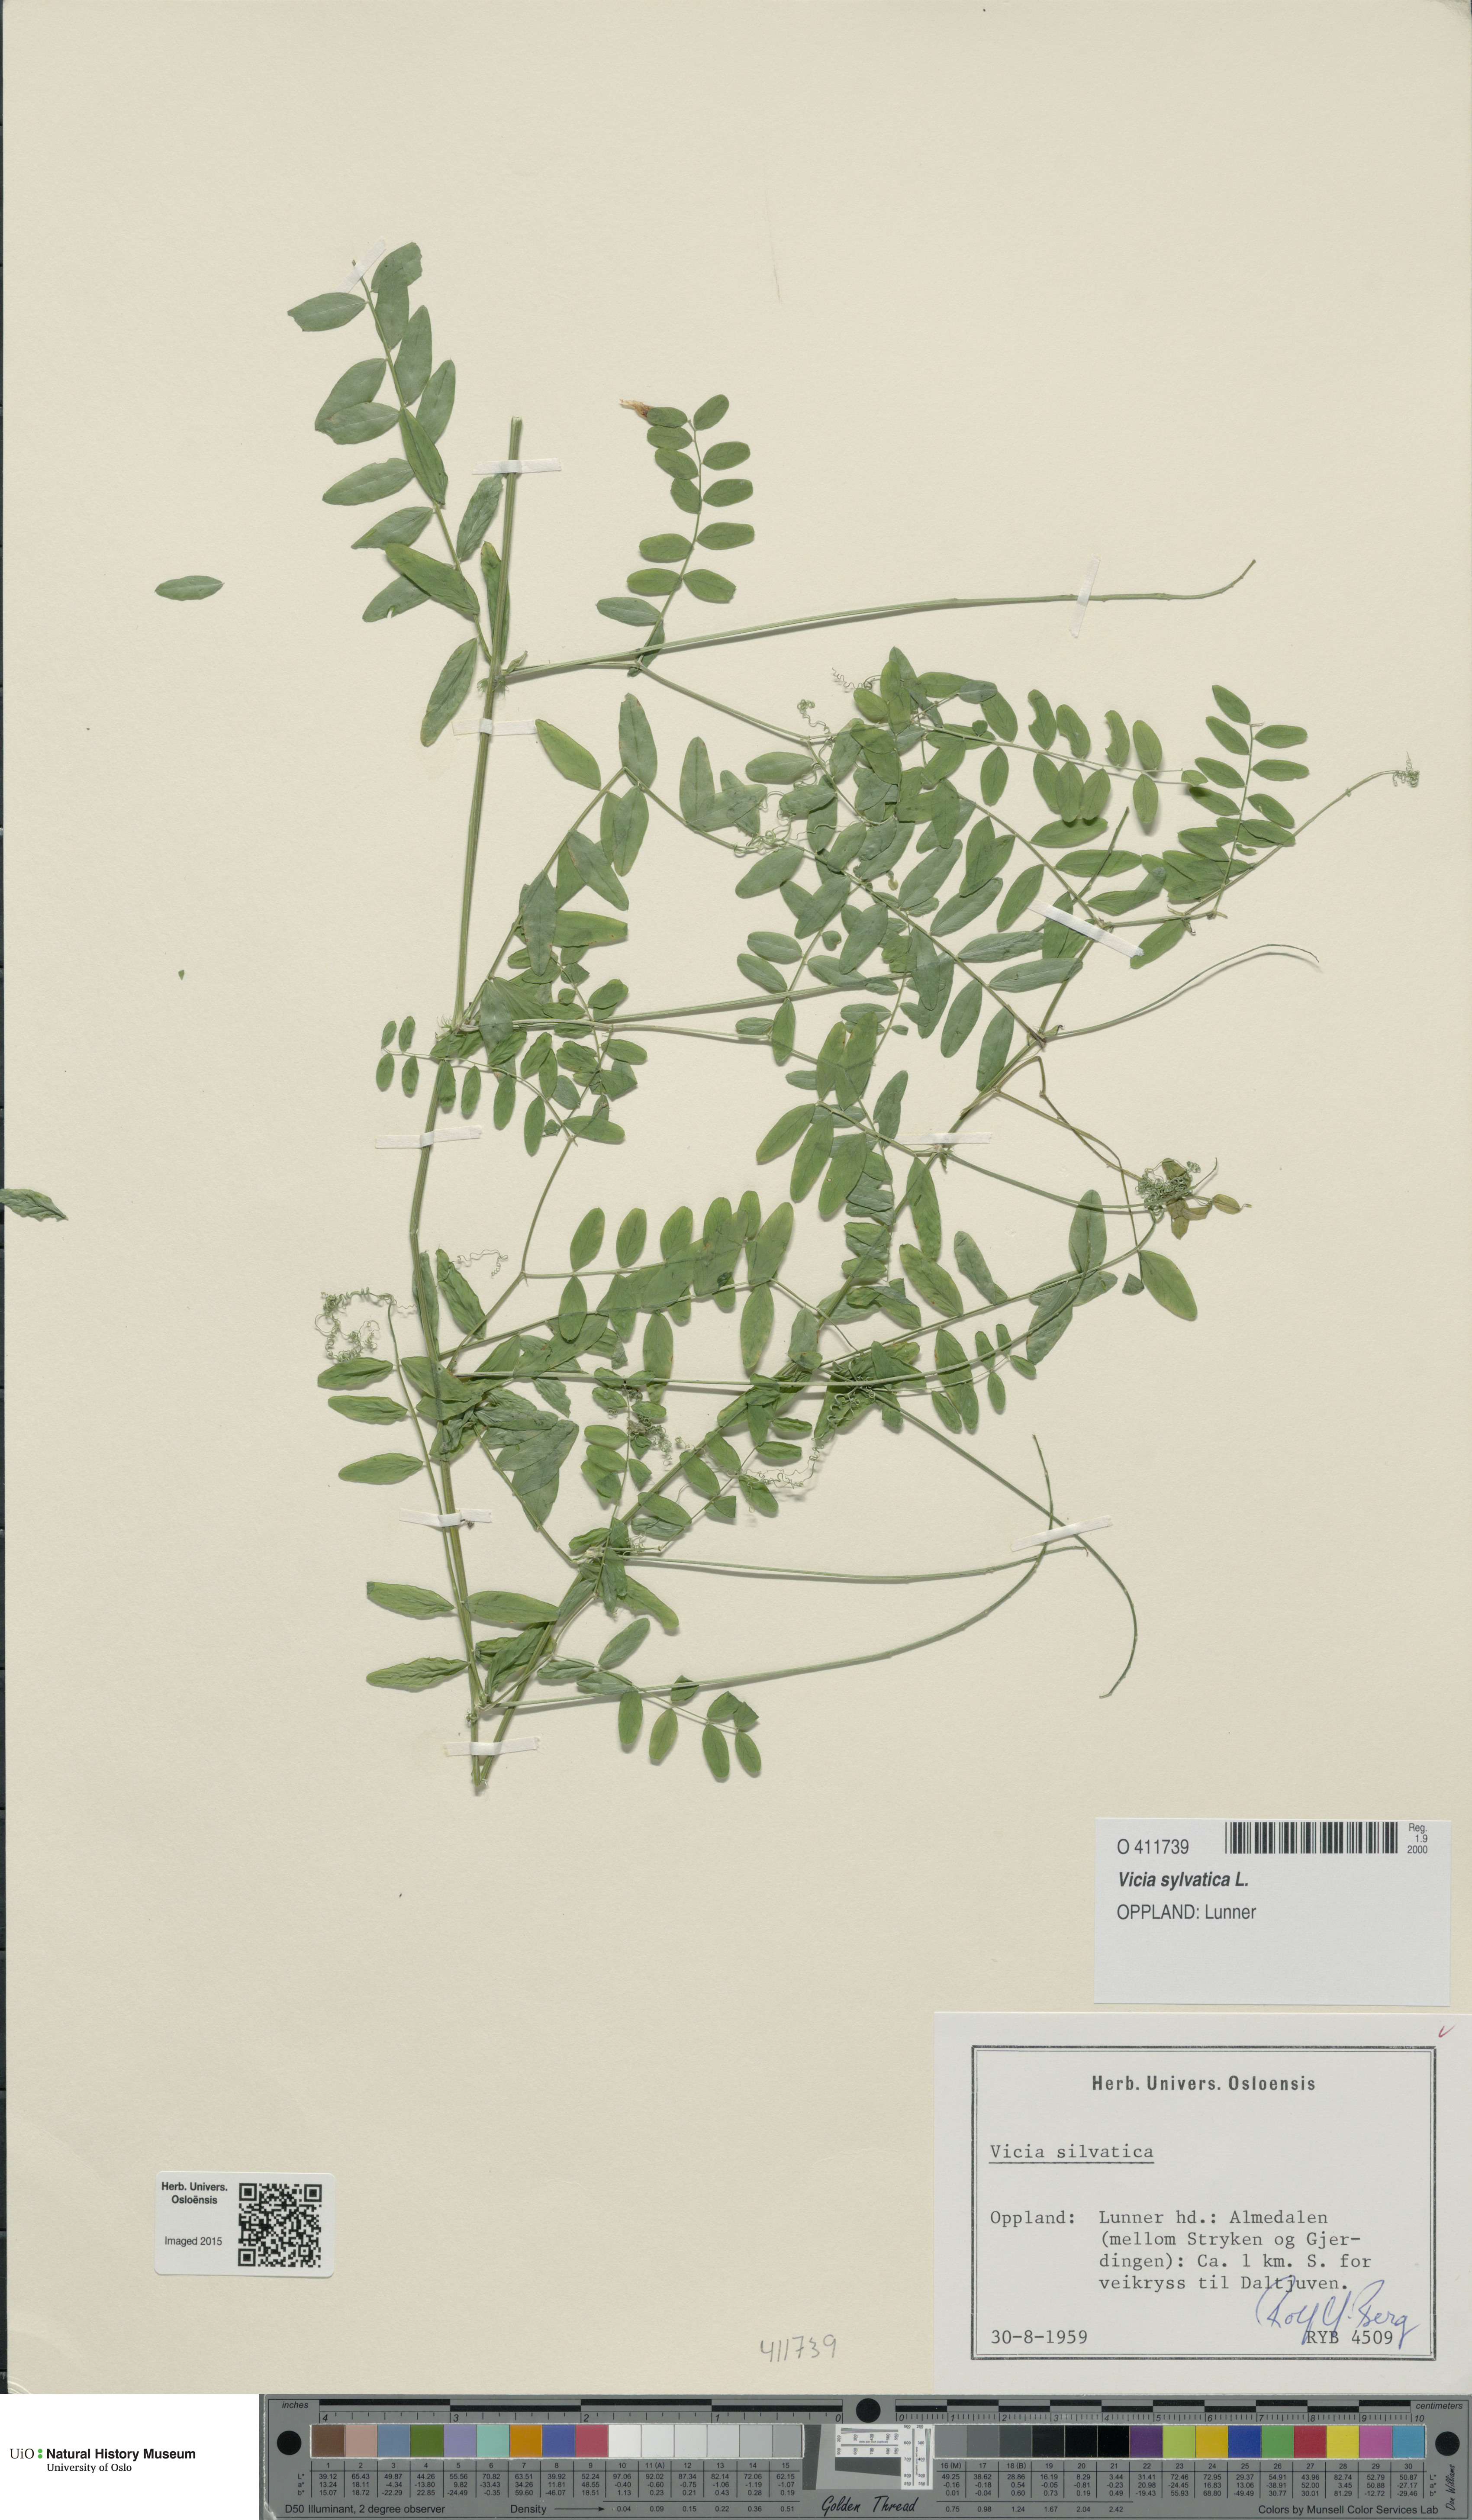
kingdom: Plantae
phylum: Tracheophyta
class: Magnoliopsida
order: Fabales
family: Fabaceae
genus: Vicia
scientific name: Vicia sylvatica
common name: Wood vetch
